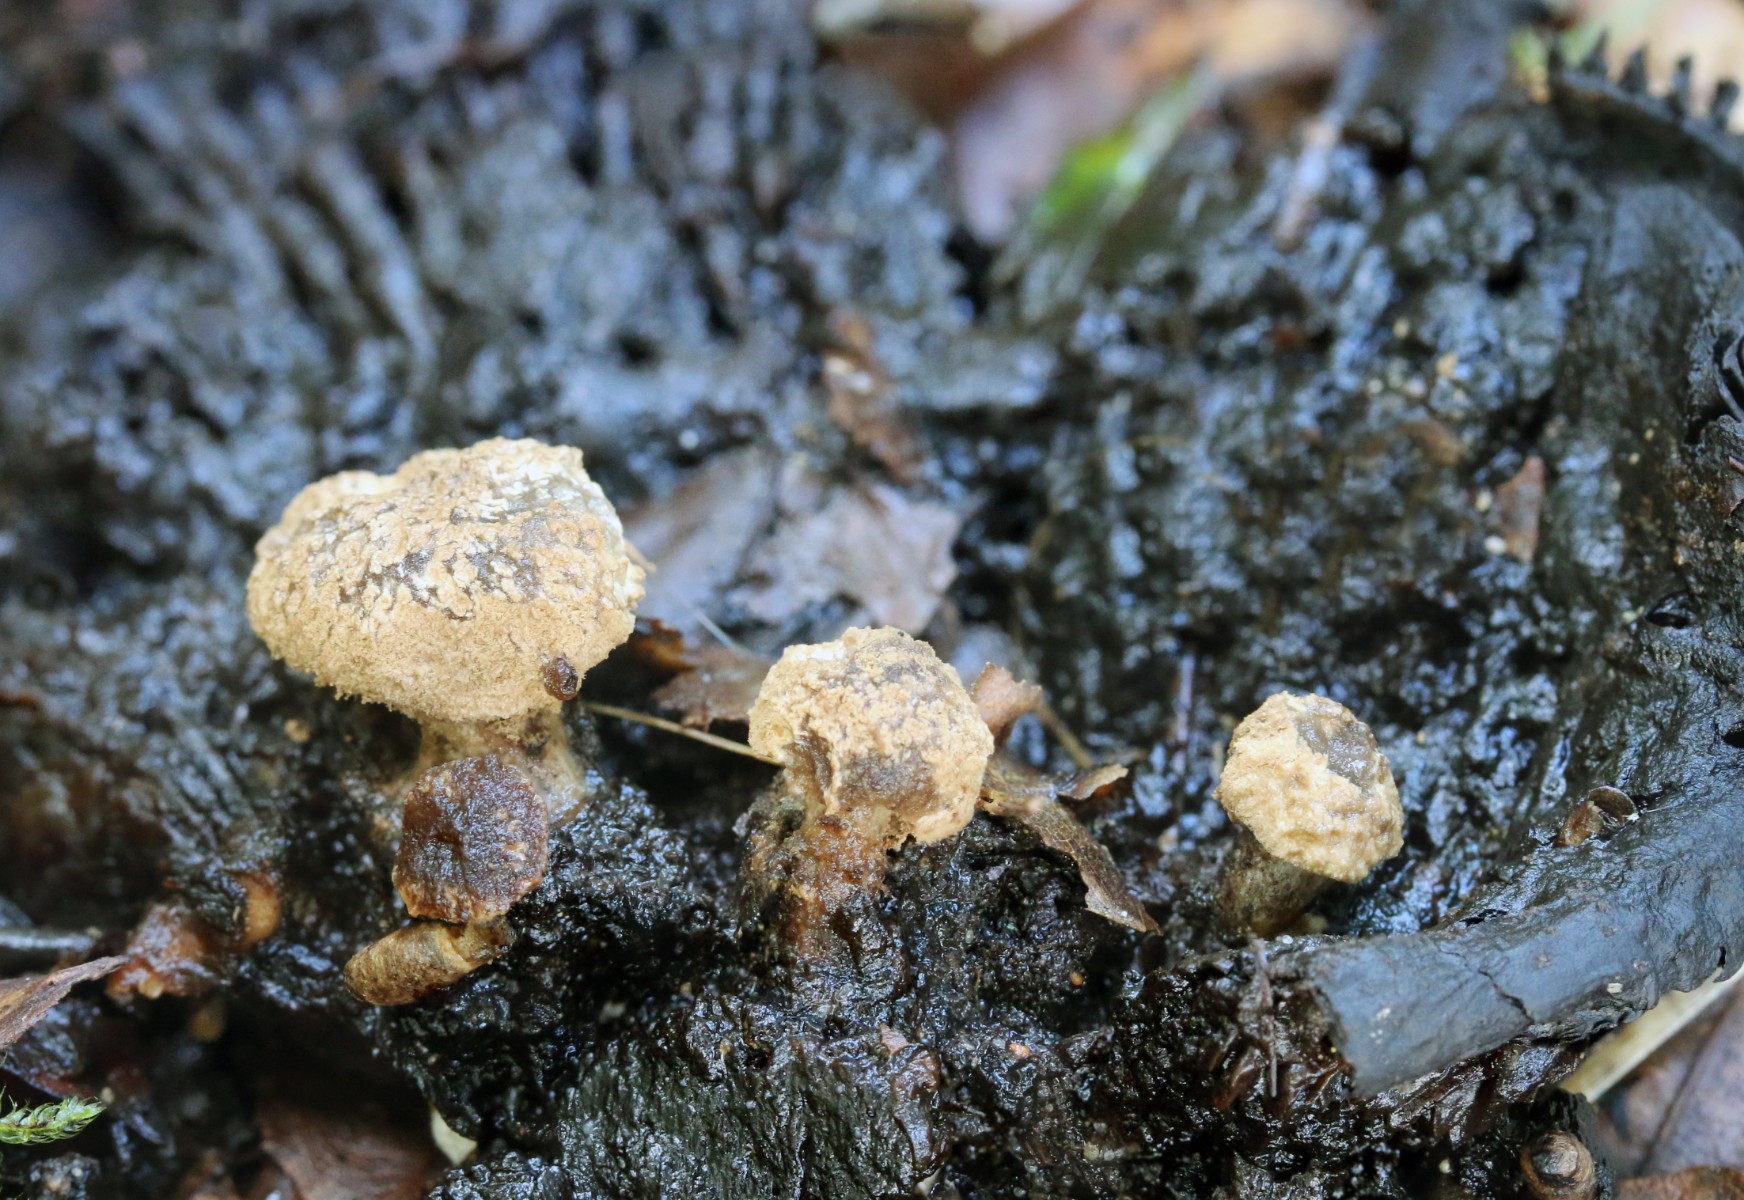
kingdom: Fungi
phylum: Basidiomycota
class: Agaricomycetes
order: Agaricales
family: Lyophyllaceae
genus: Asterophora
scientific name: Asterophora lycoperdoides
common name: brunpudret snyltehat
